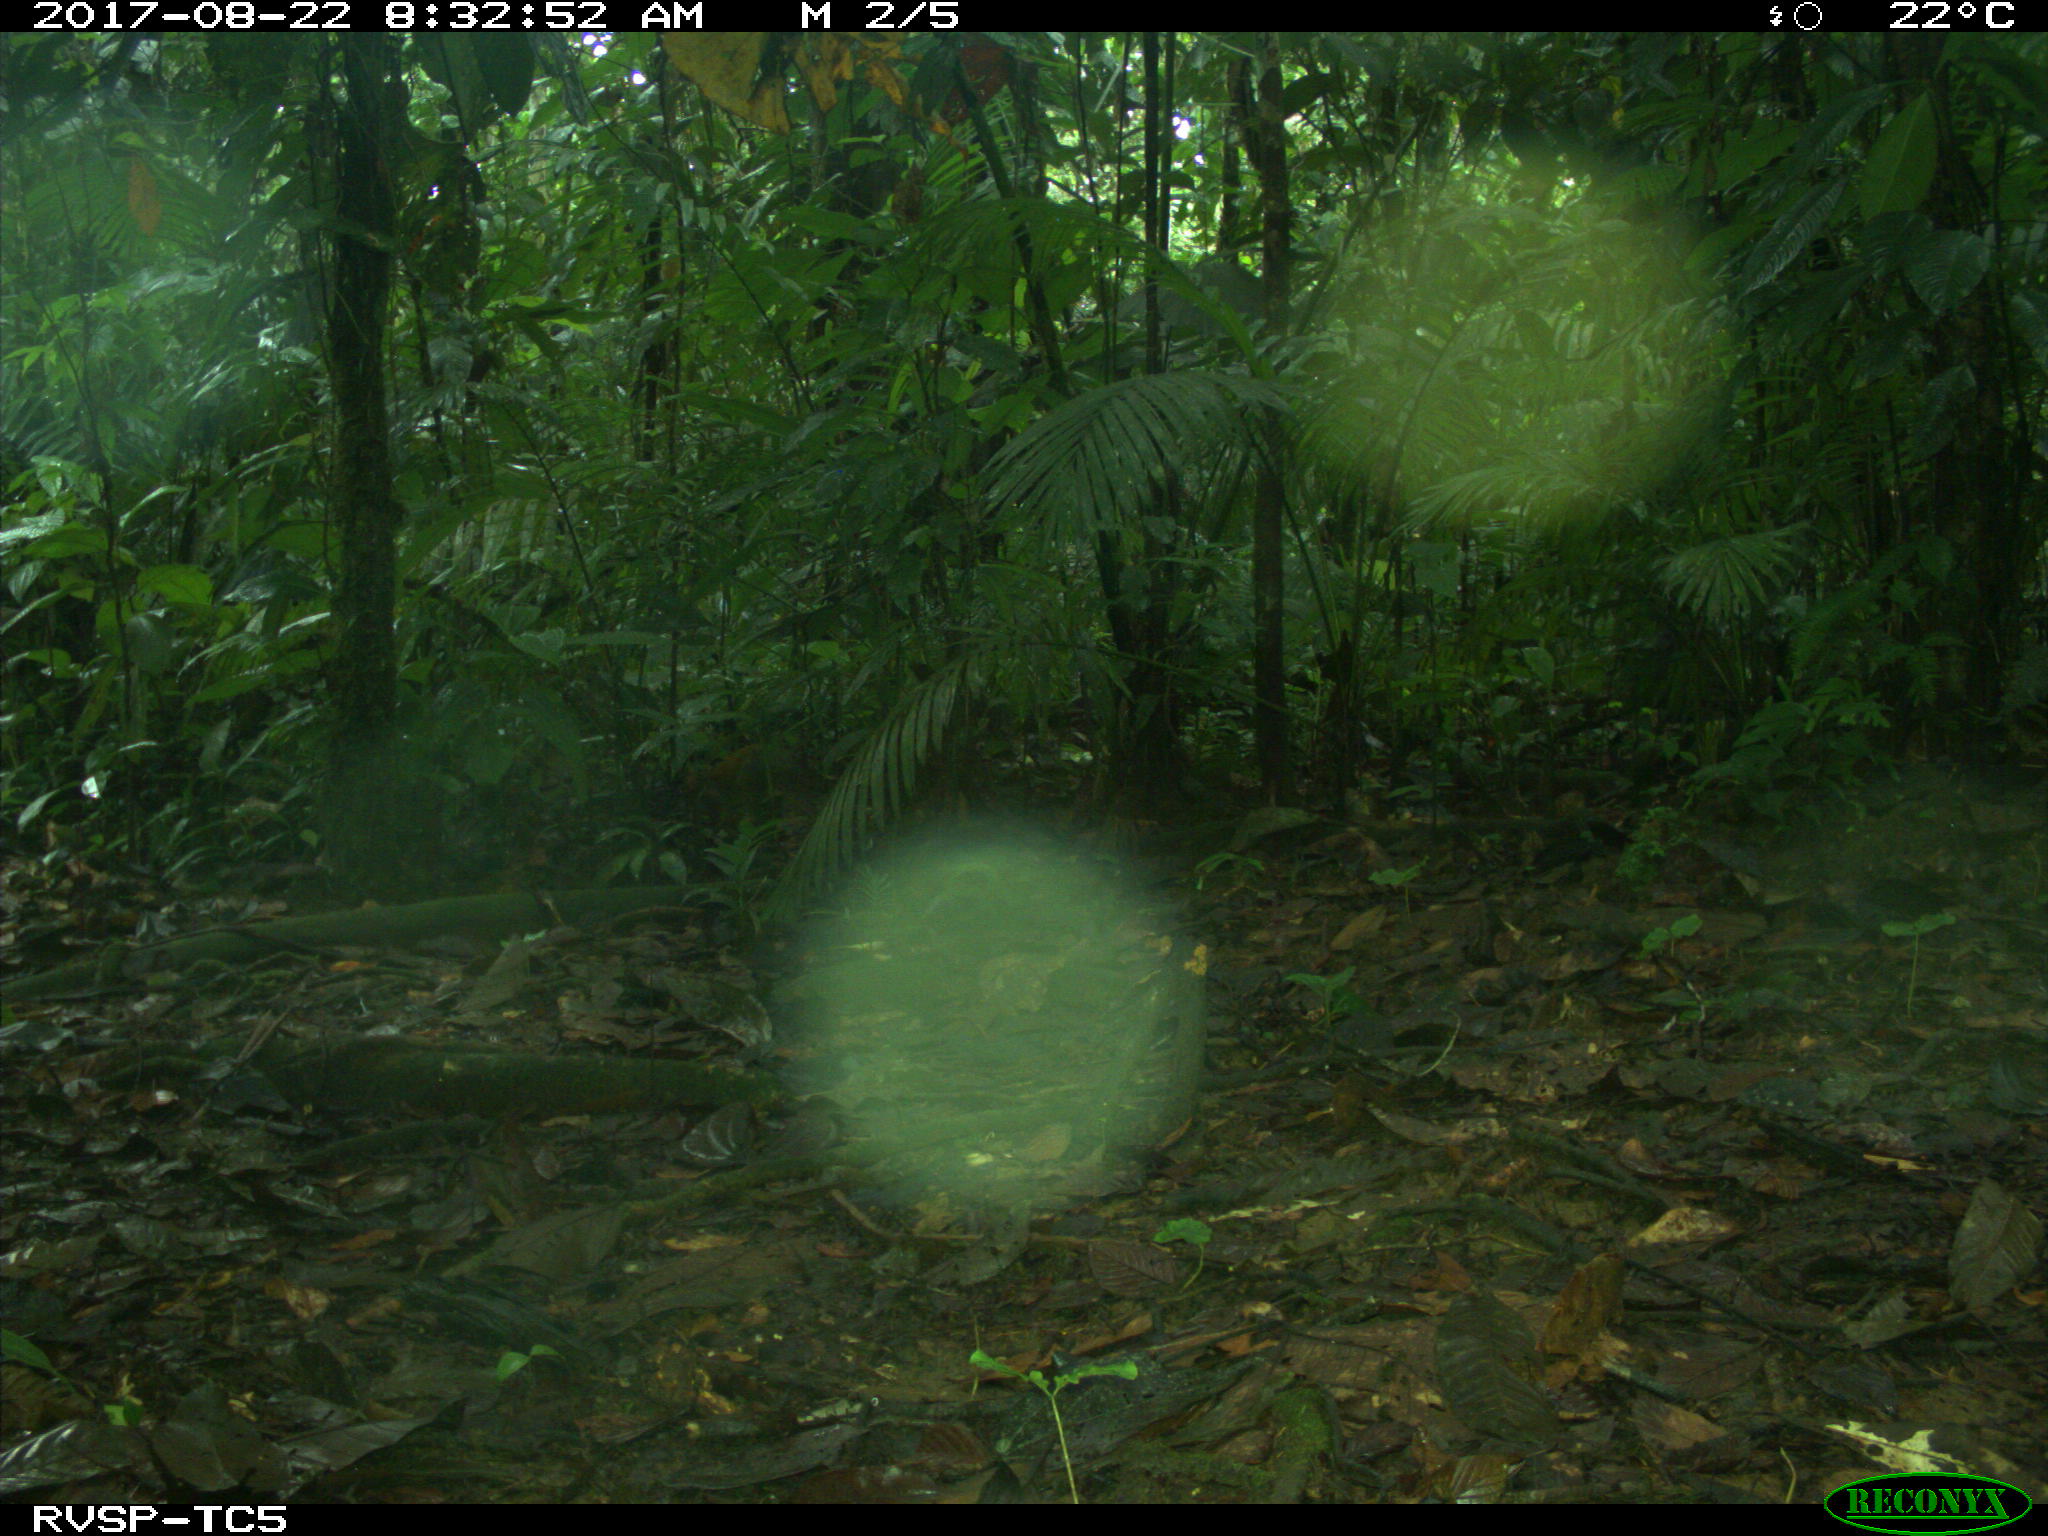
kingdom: Animalia
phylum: Chordata
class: Mammalia
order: Rodentia
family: Dasyproctidae
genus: Dasyprocta
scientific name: Dasyprocta punctata
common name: Central american agouti
